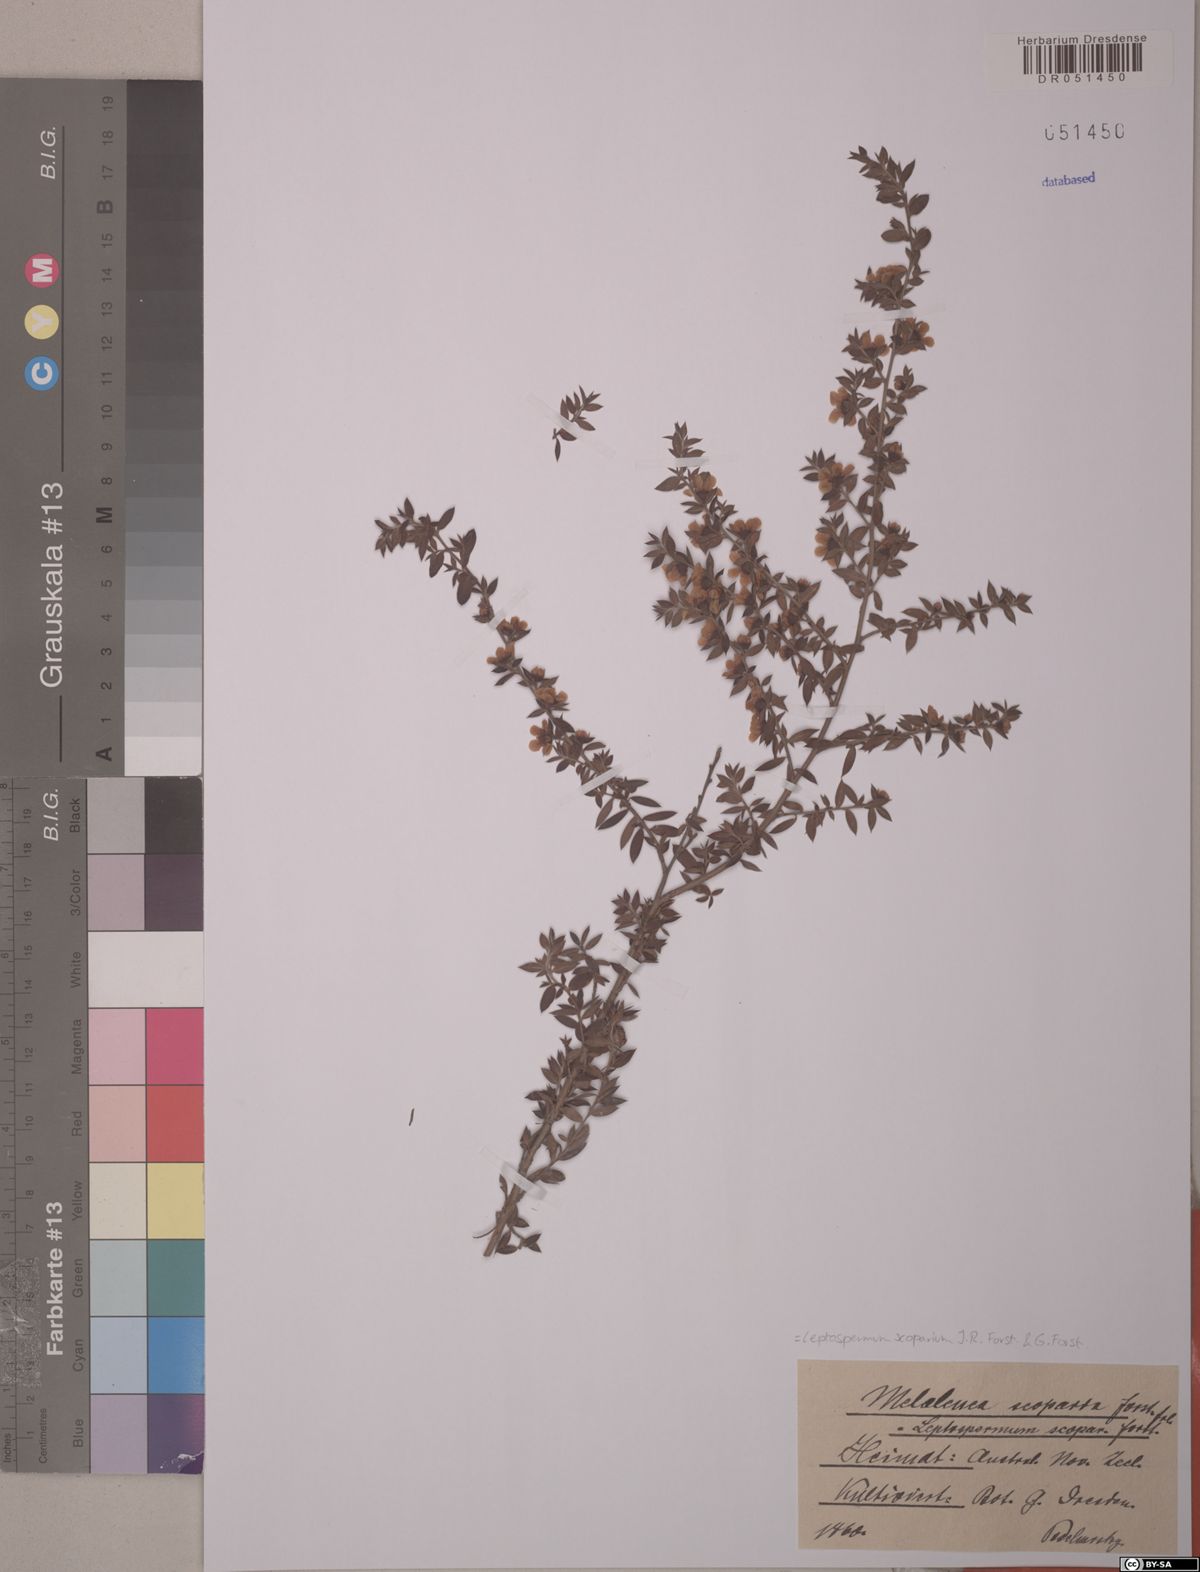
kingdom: Plantae
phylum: Tracheophyta
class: Magnoliopsida
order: Myrtales
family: Myrtaceae
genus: Leptospermum
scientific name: Leptospermum scoparium
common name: Broom tea-tree
